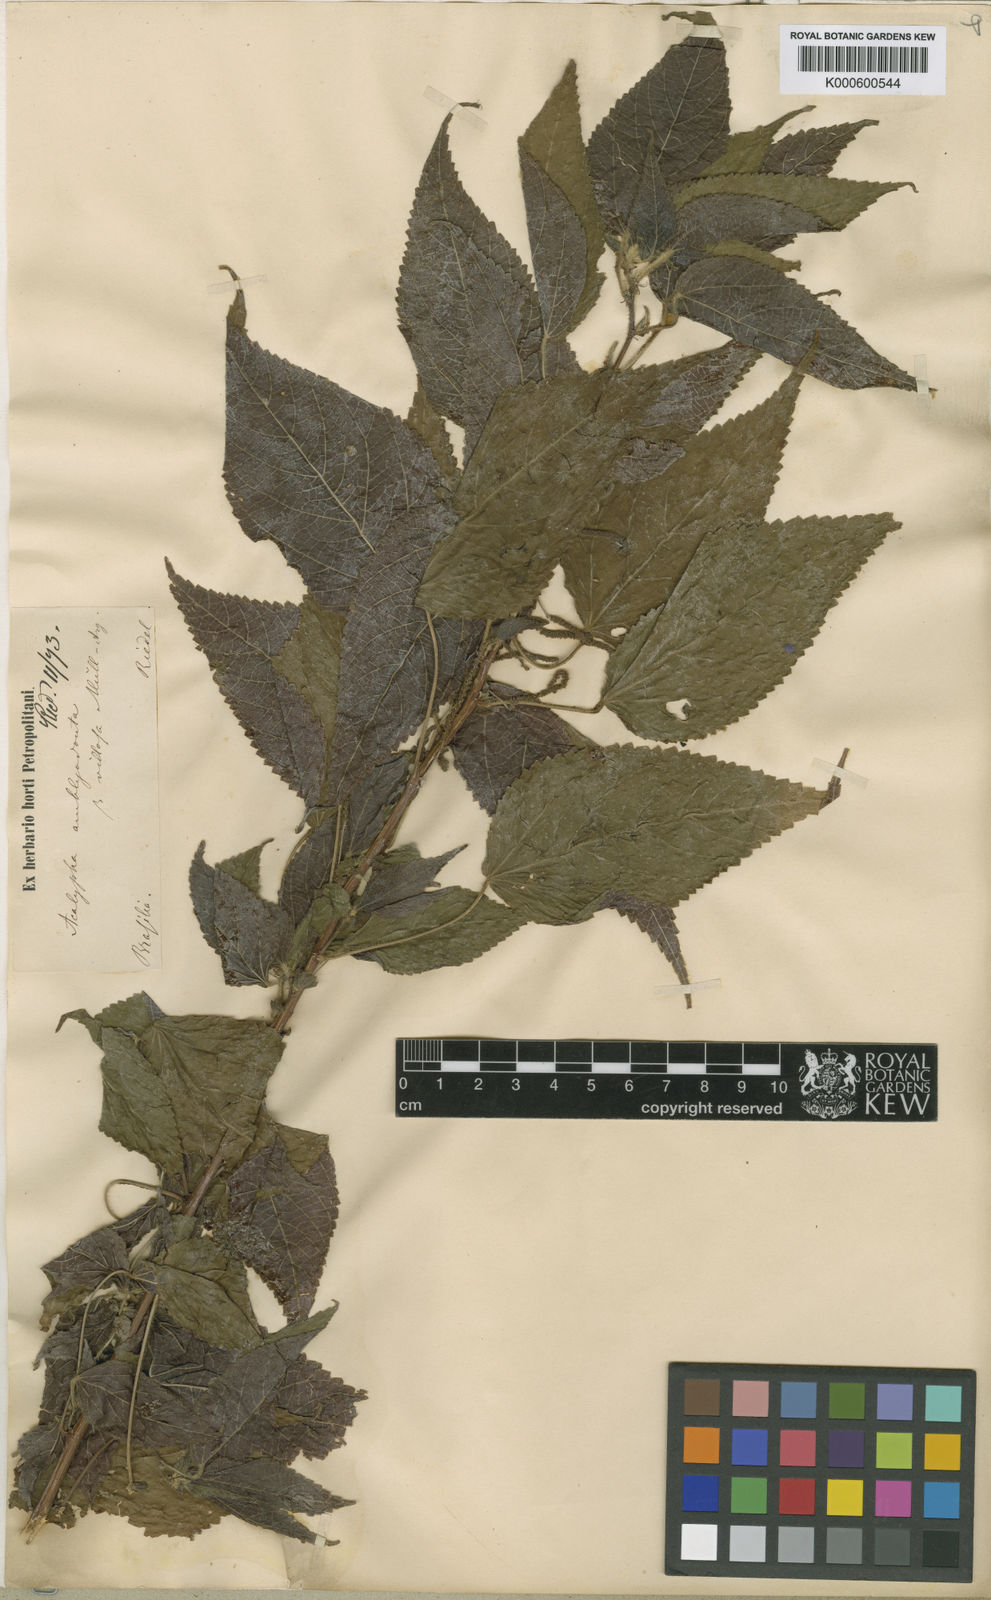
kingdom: Plantae
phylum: Tracheophyta
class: Magnoliopsida
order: Malpighiales
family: Euphorbiaceae
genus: Acalypha
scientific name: Acalypha
